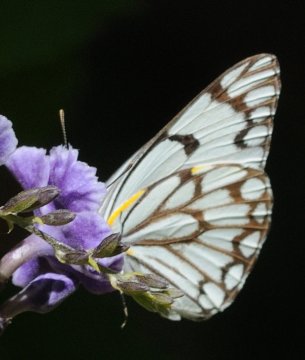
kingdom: Animalia
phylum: Arthropoda
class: Insecta
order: Lepidoptera
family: Pieridae
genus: Belenois
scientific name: Belenois aurota
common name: Pioneer White
